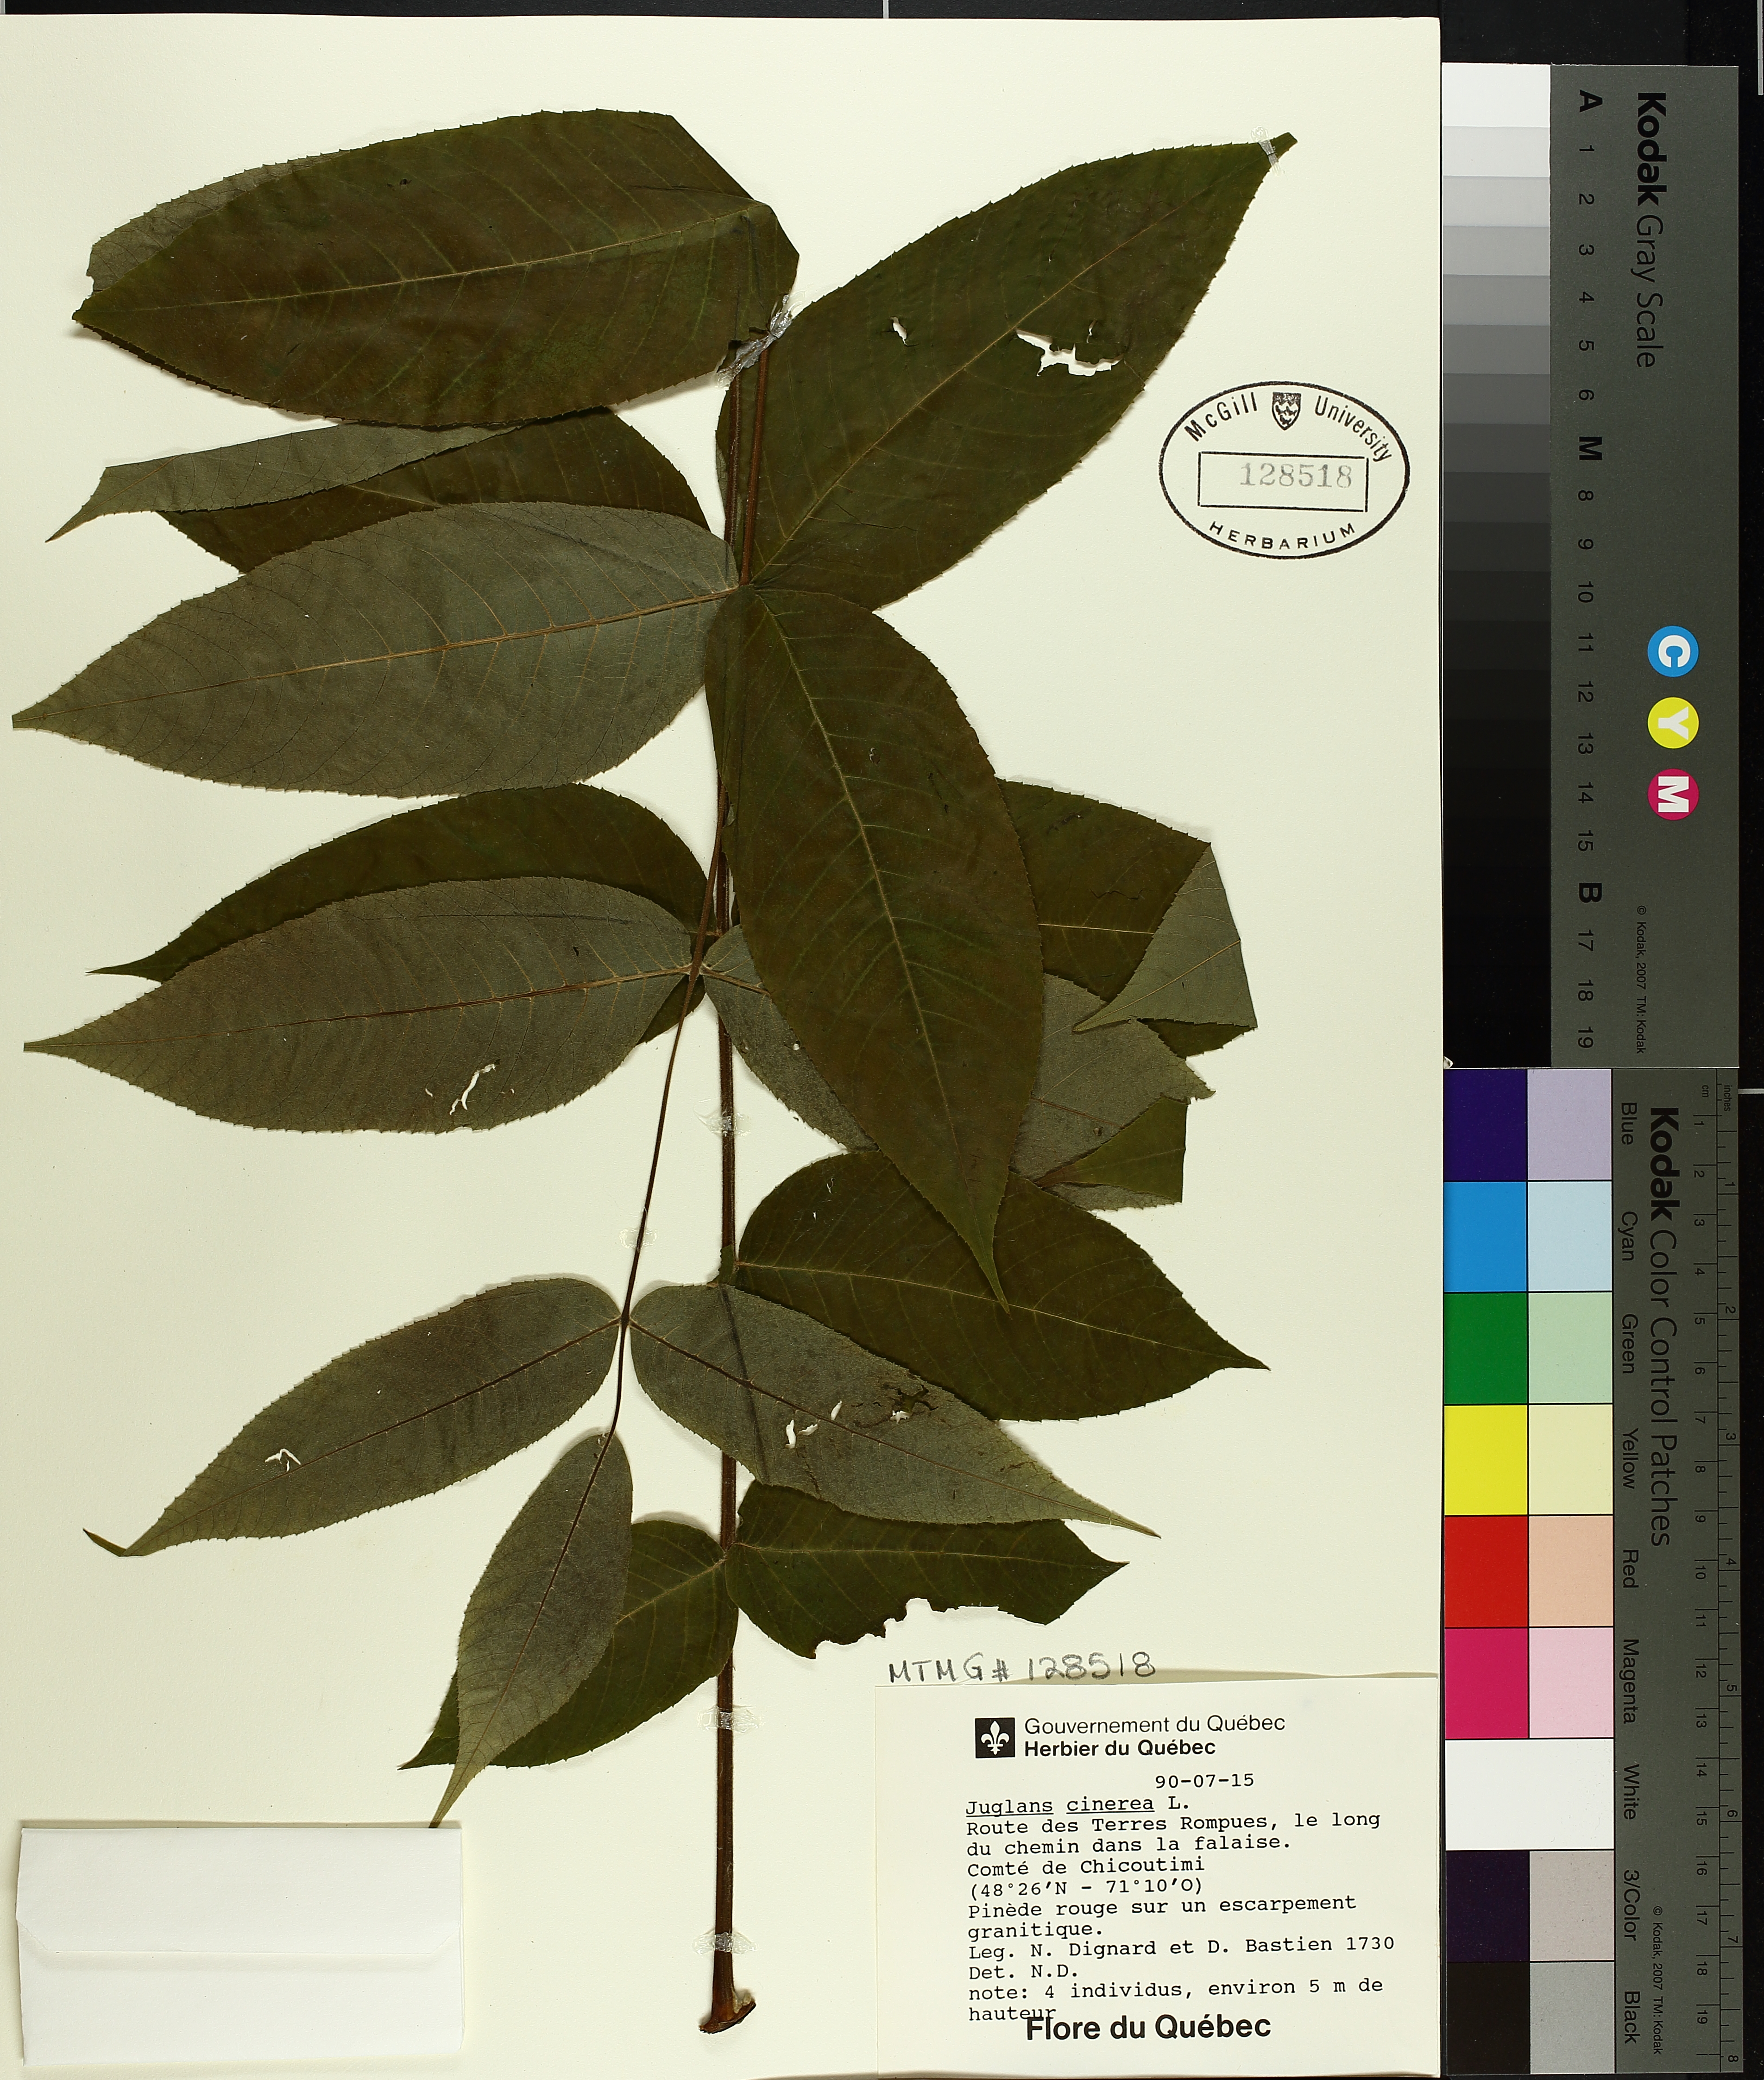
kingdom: Plantae
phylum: Tracheophyta
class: Magnoliopsida
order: Fagales
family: Juglandaceae
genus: Juglans
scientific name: Juglans cinerea
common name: Butternut
